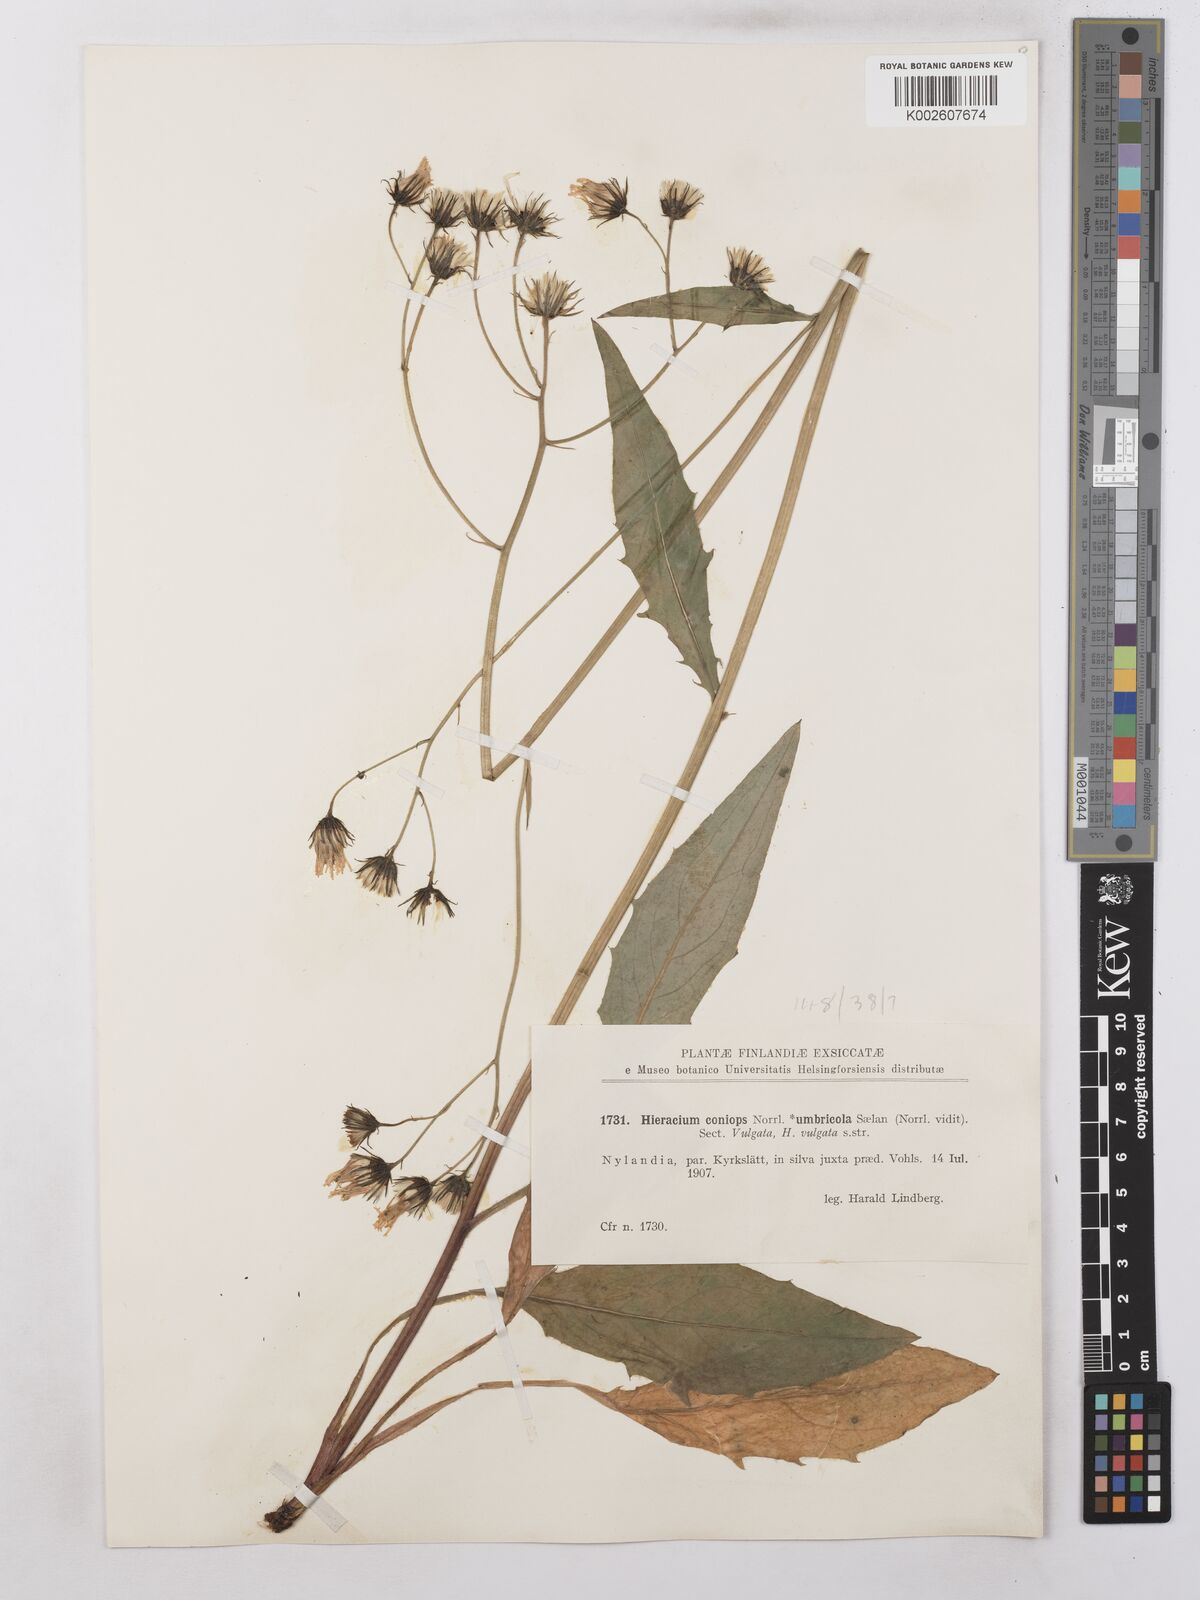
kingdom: Plantae
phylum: Tracheophyta
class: Magnoliopsida
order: Asterales
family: Asteraceae
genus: Hieracium
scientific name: Hieracium subramosum
